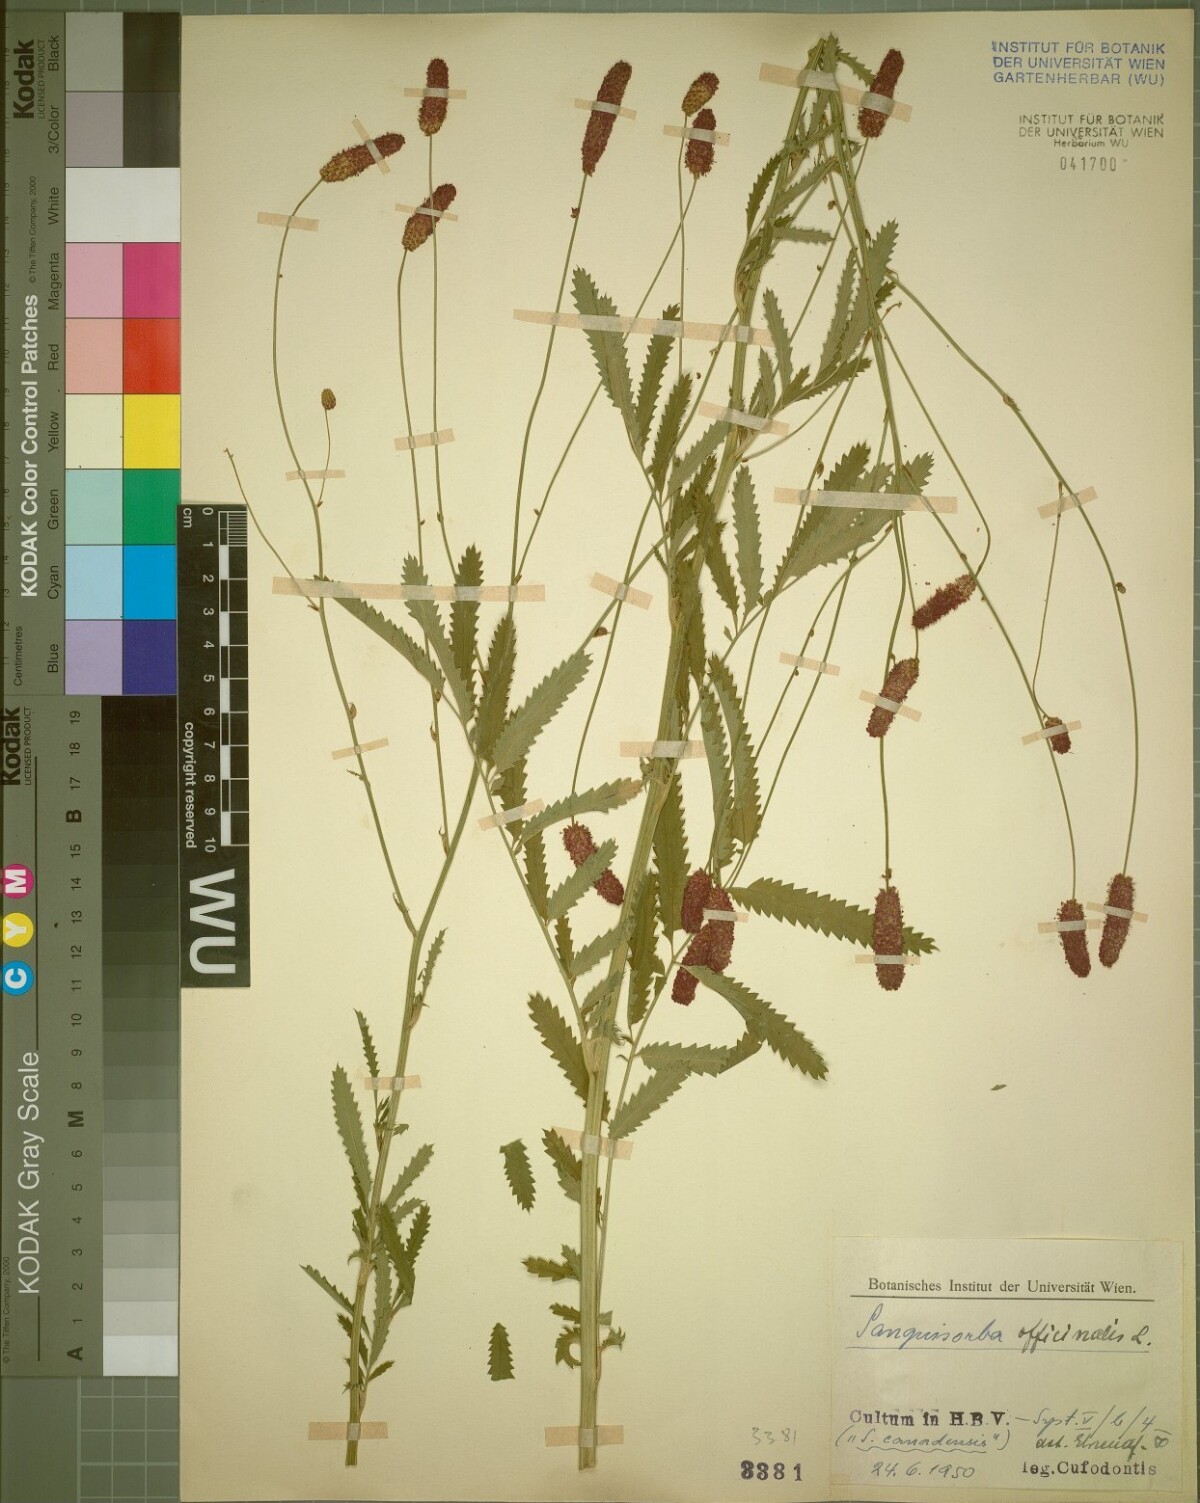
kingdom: Plantae
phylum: Tracheophyta
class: Magnoliopsida
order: Rosales
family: Rosaceae
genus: Sanguisorba
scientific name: Sanguisorba officinalis
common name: Great burnet
